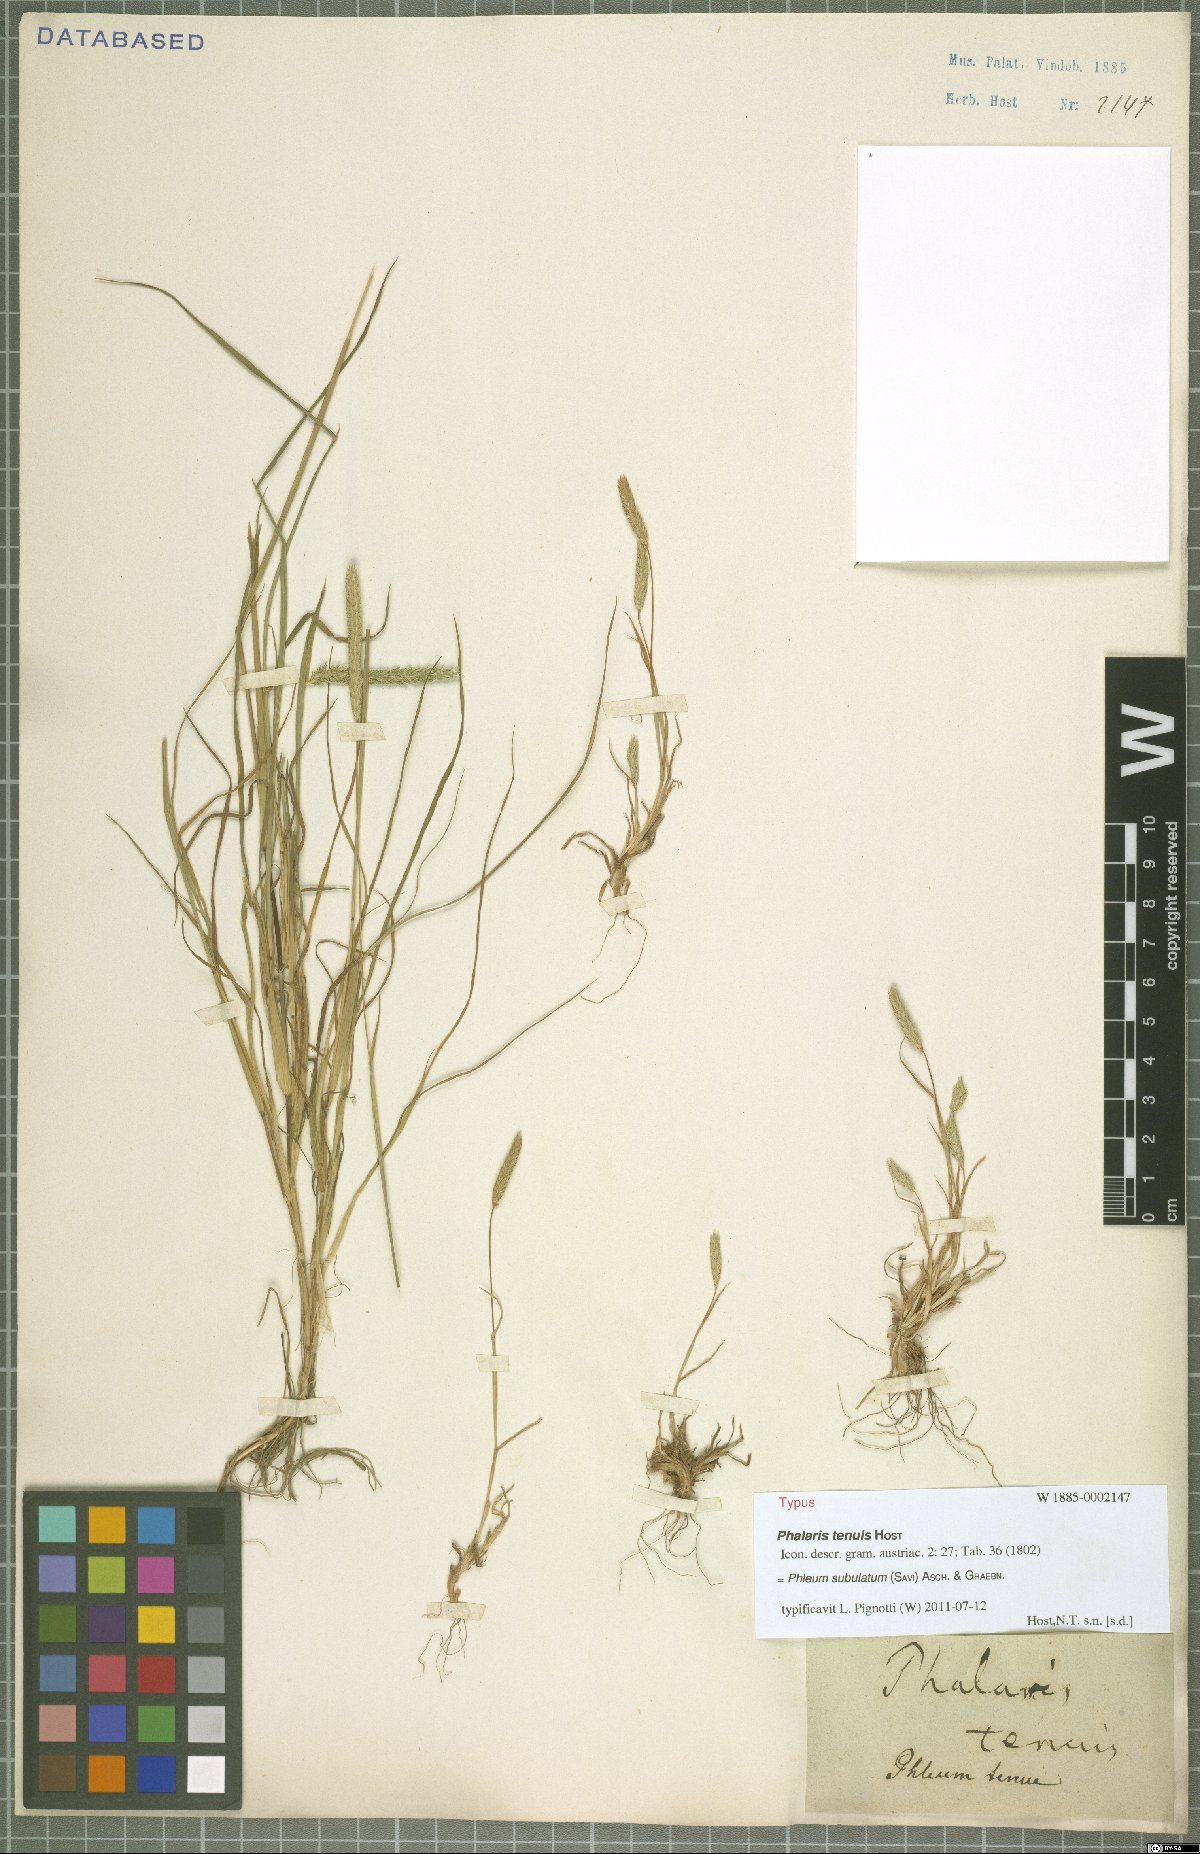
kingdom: Plantae
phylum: Tracheophyta
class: Liliopsida
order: Poales
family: Poaceae
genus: Phleum
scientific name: Phleum subulatum
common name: Italian timothy
